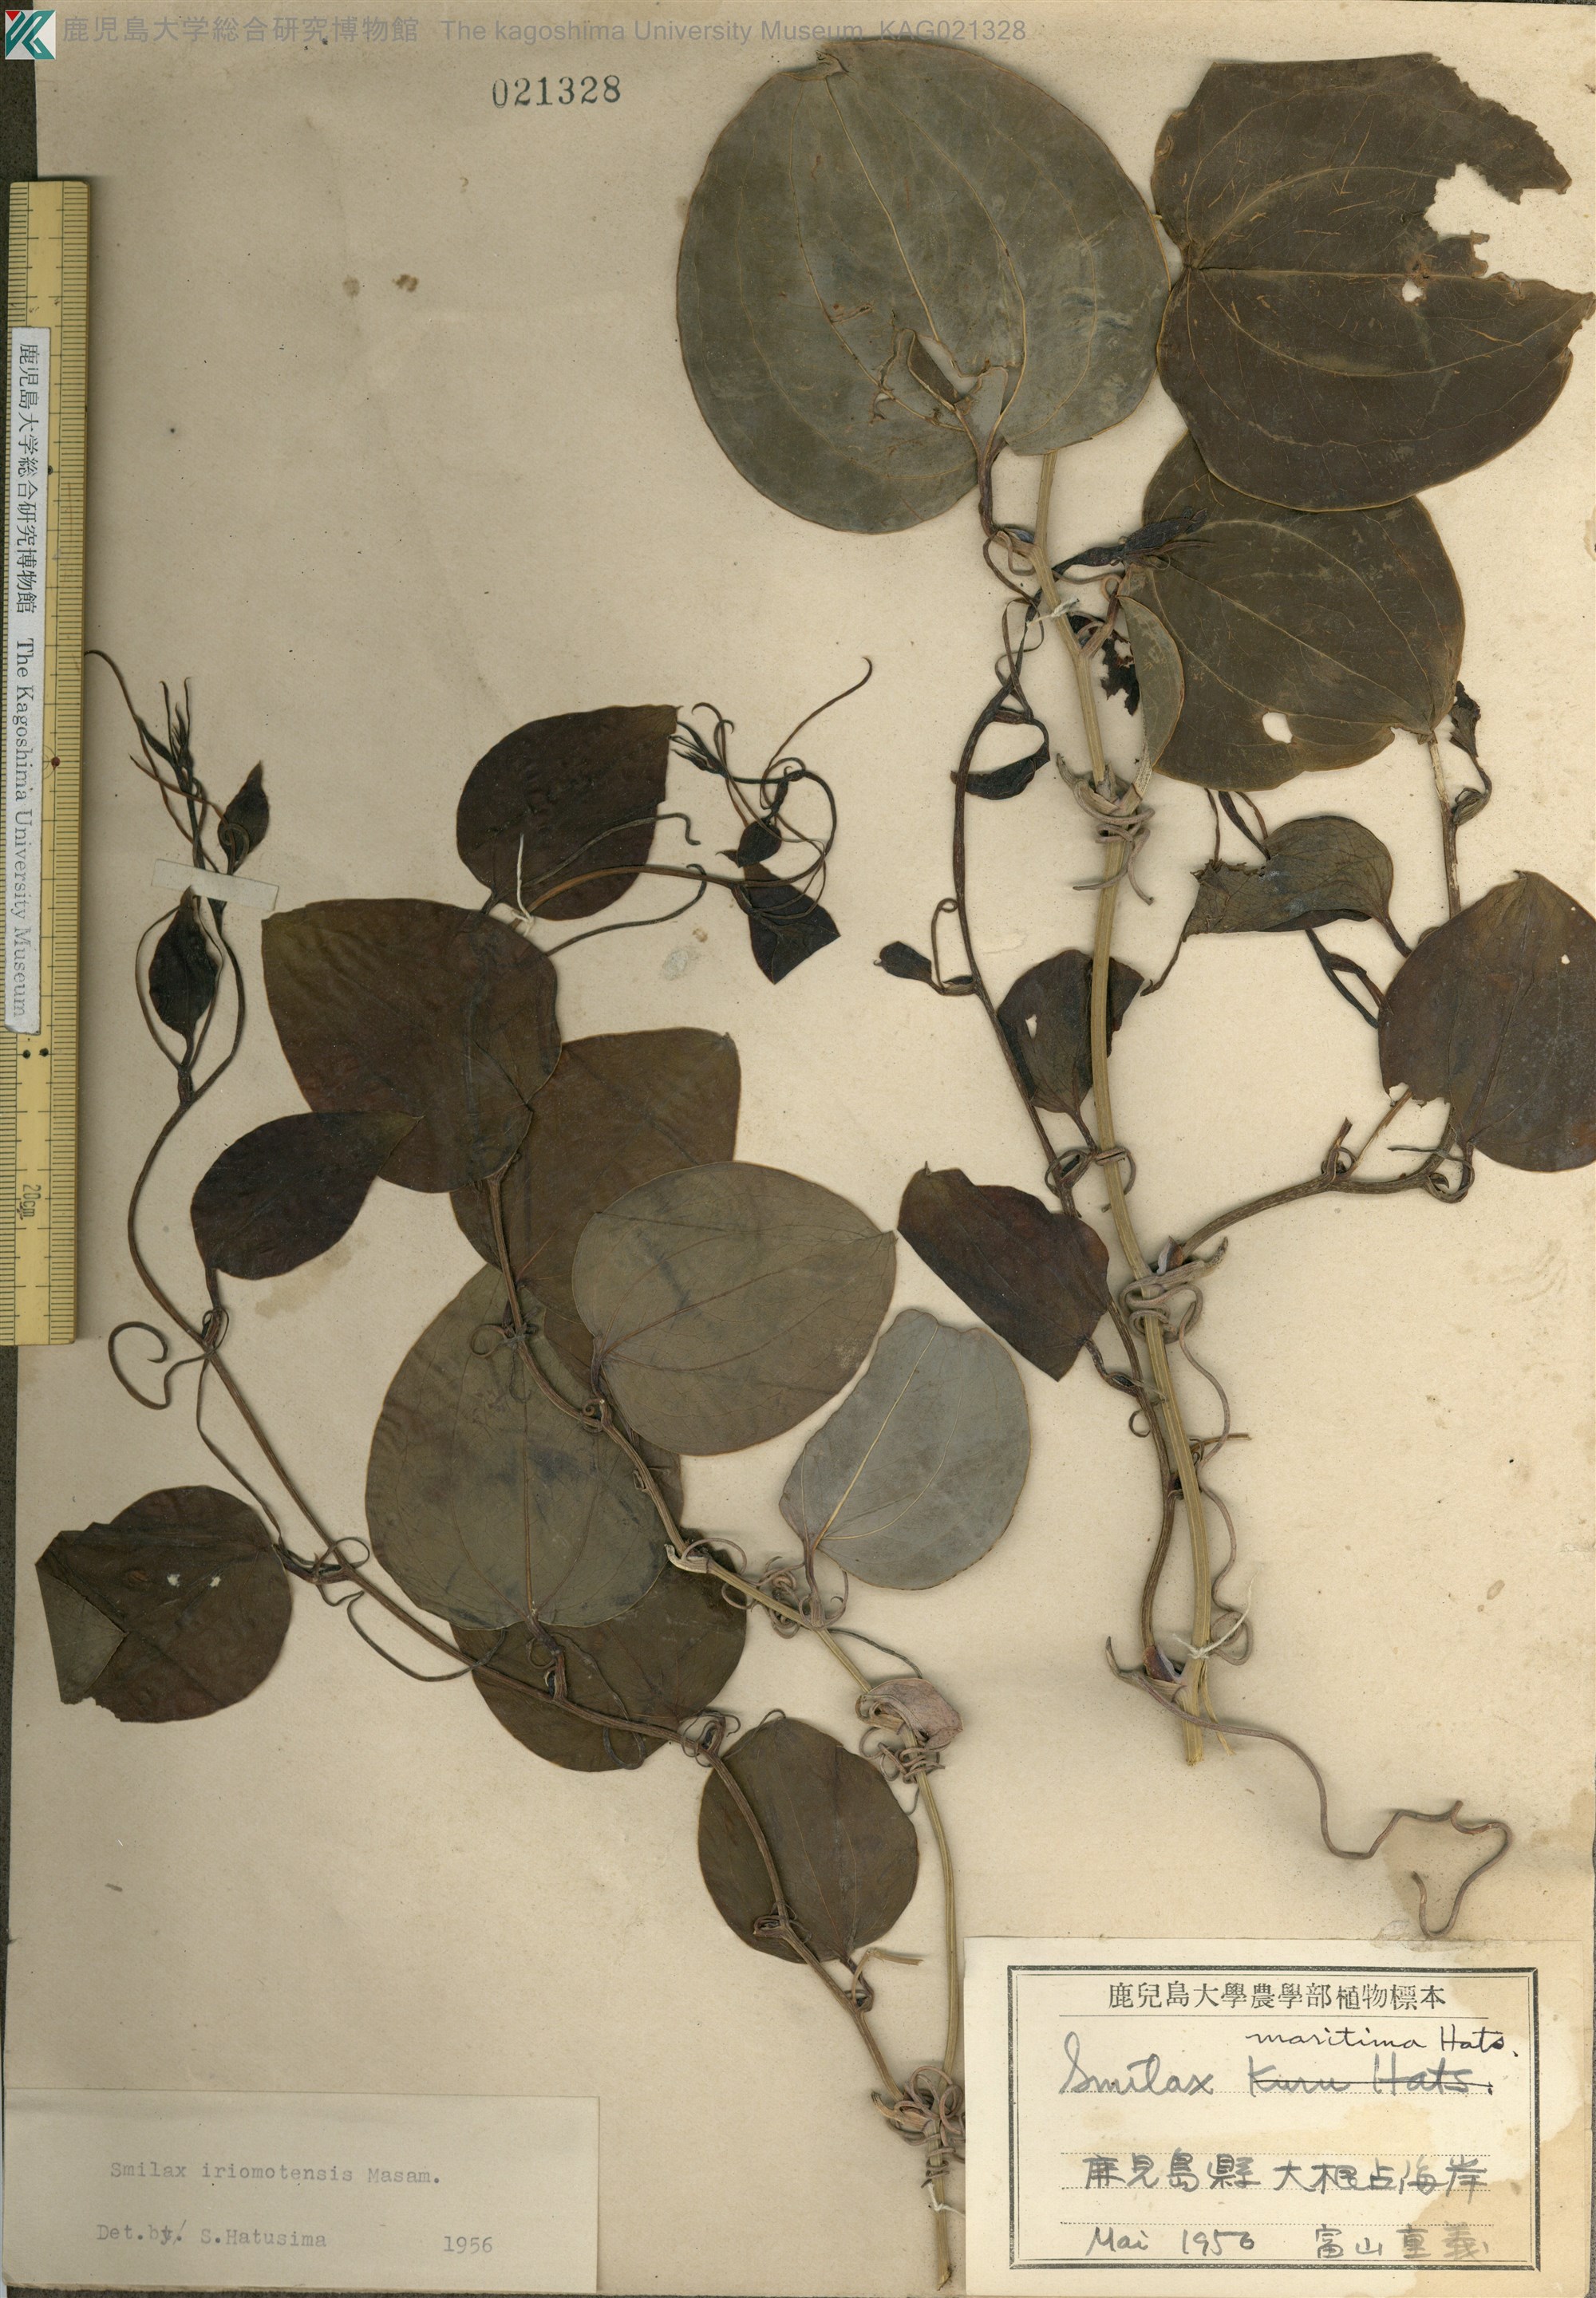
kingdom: Plantae
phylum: Tracheophyta
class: Liliopsida
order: Liliales
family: Smilacaceae
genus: Smilax
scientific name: Smilax sebeana
